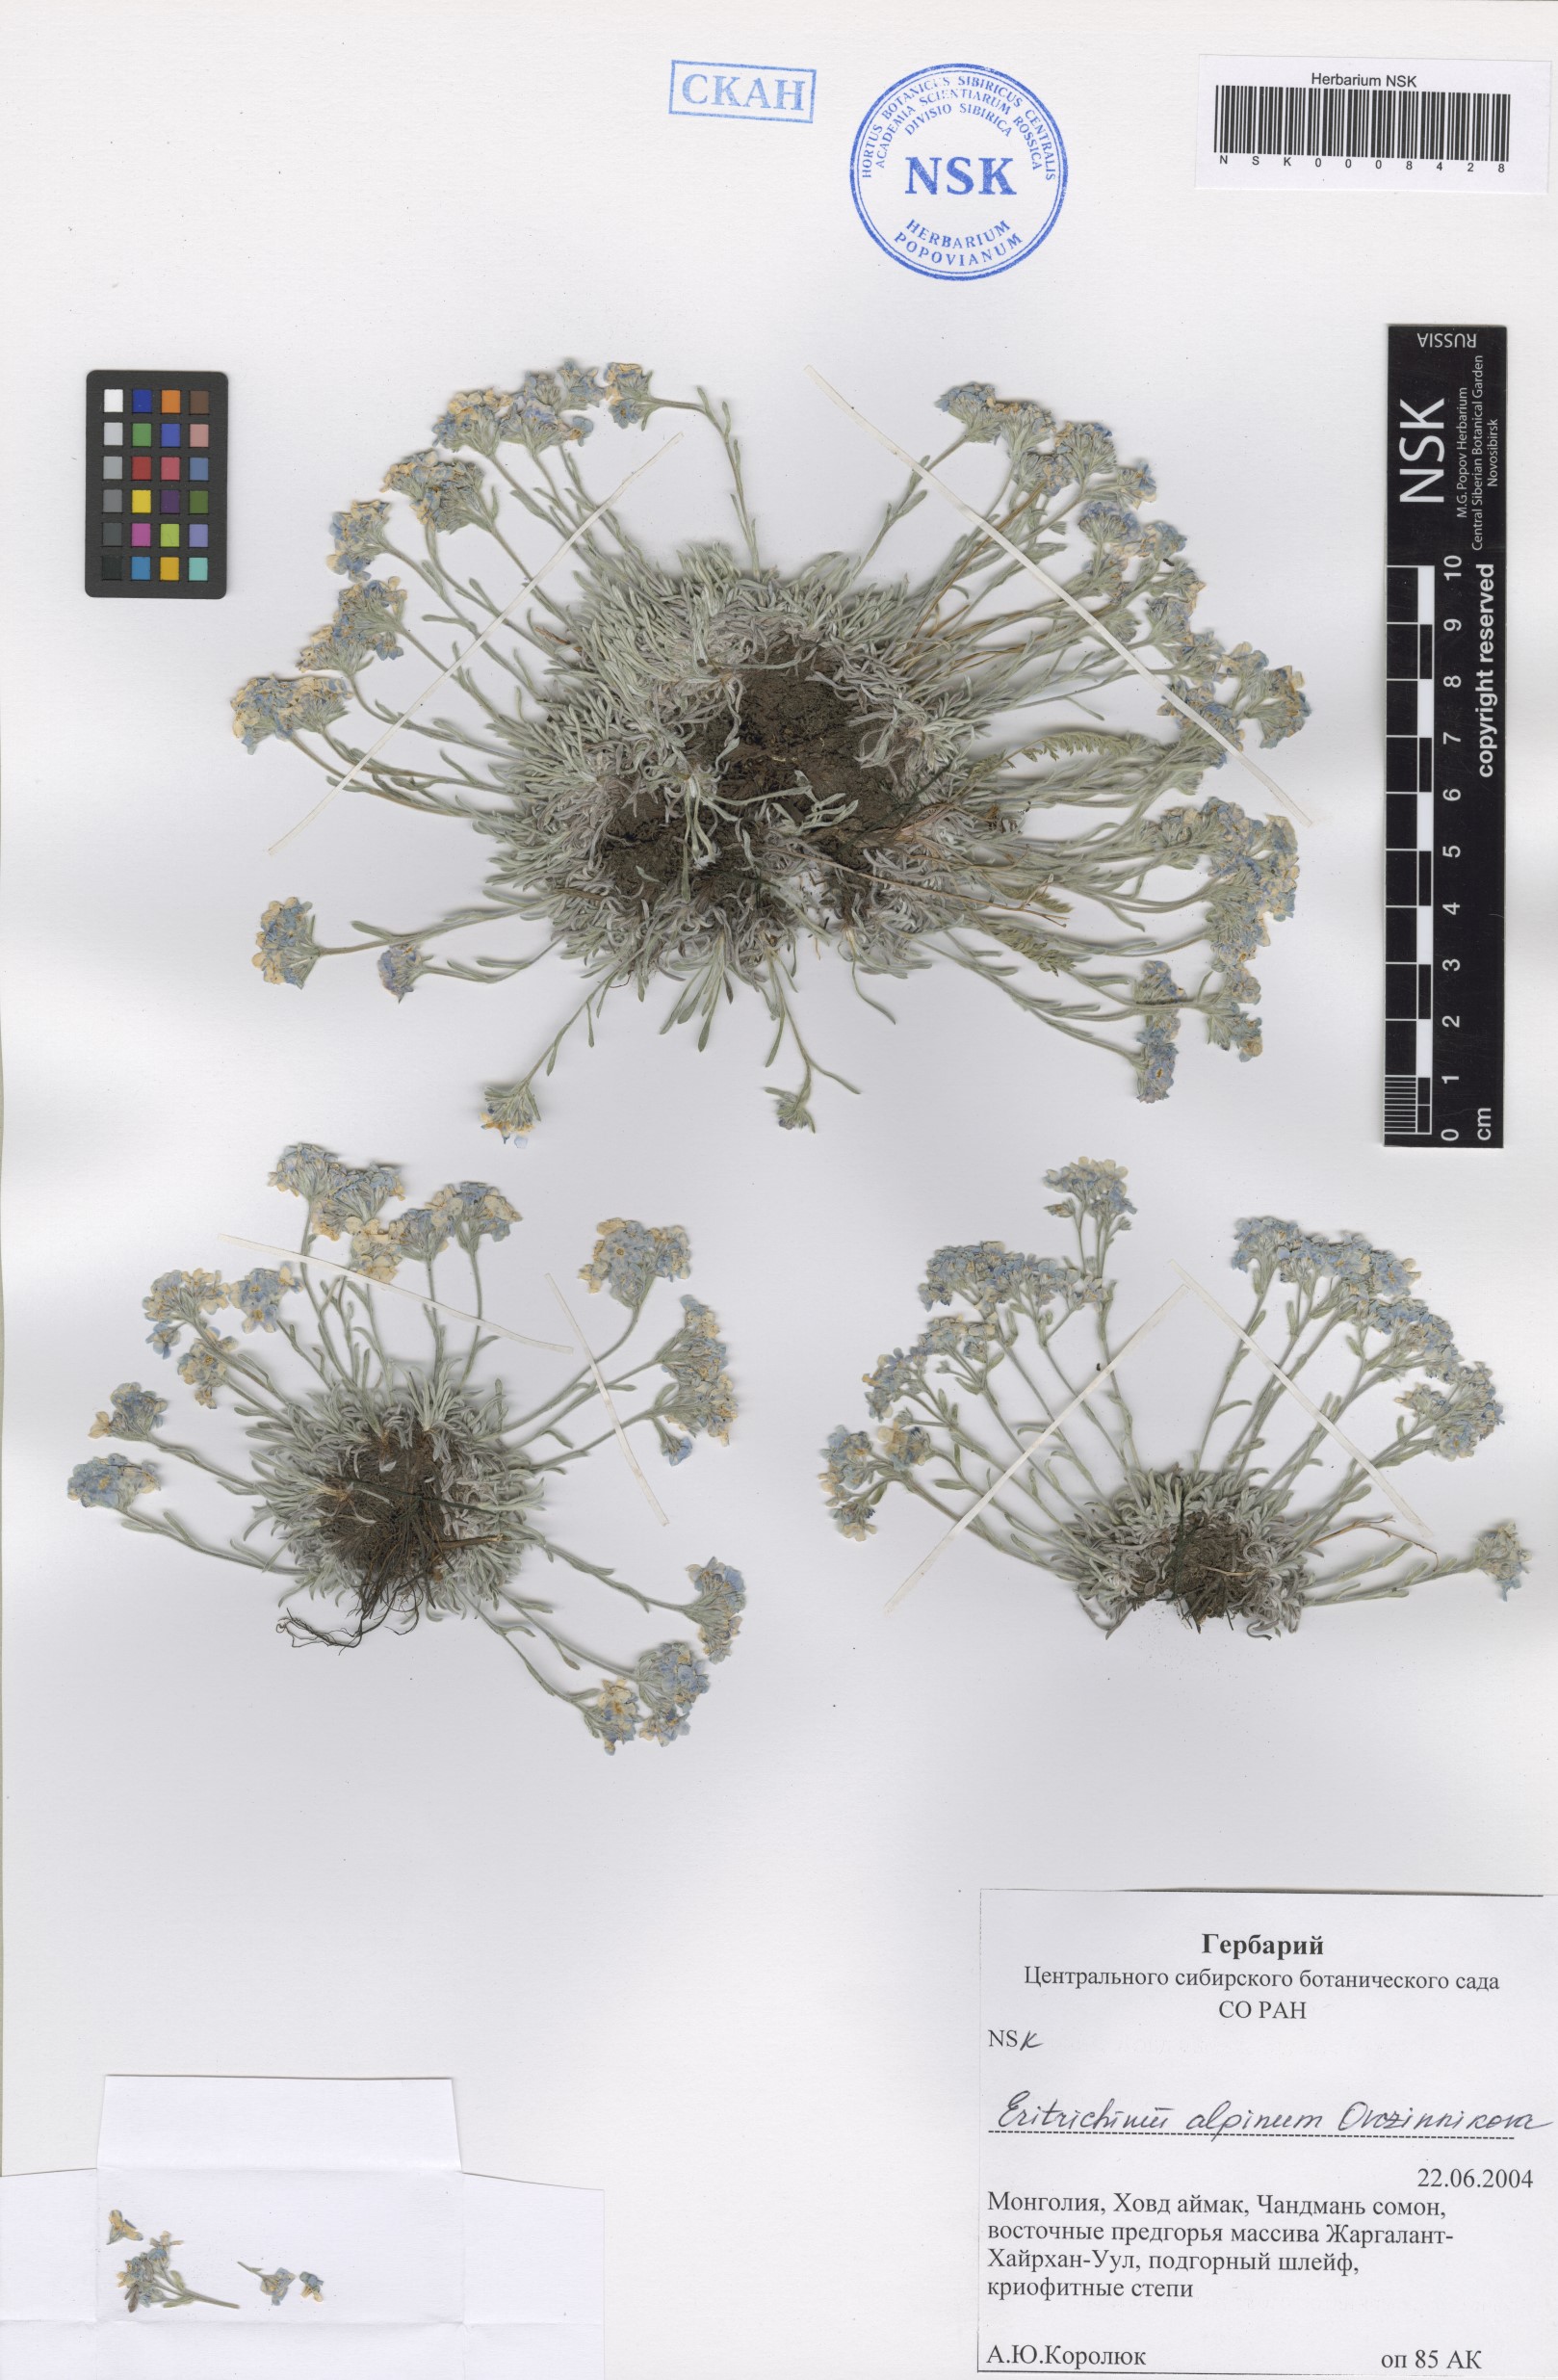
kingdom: Plantae
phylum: Tracheophyta
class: Magnoliopsida
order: Boraginales
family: Boraginaceae
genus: Eritrichium
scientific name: Eritrichium alpinum
